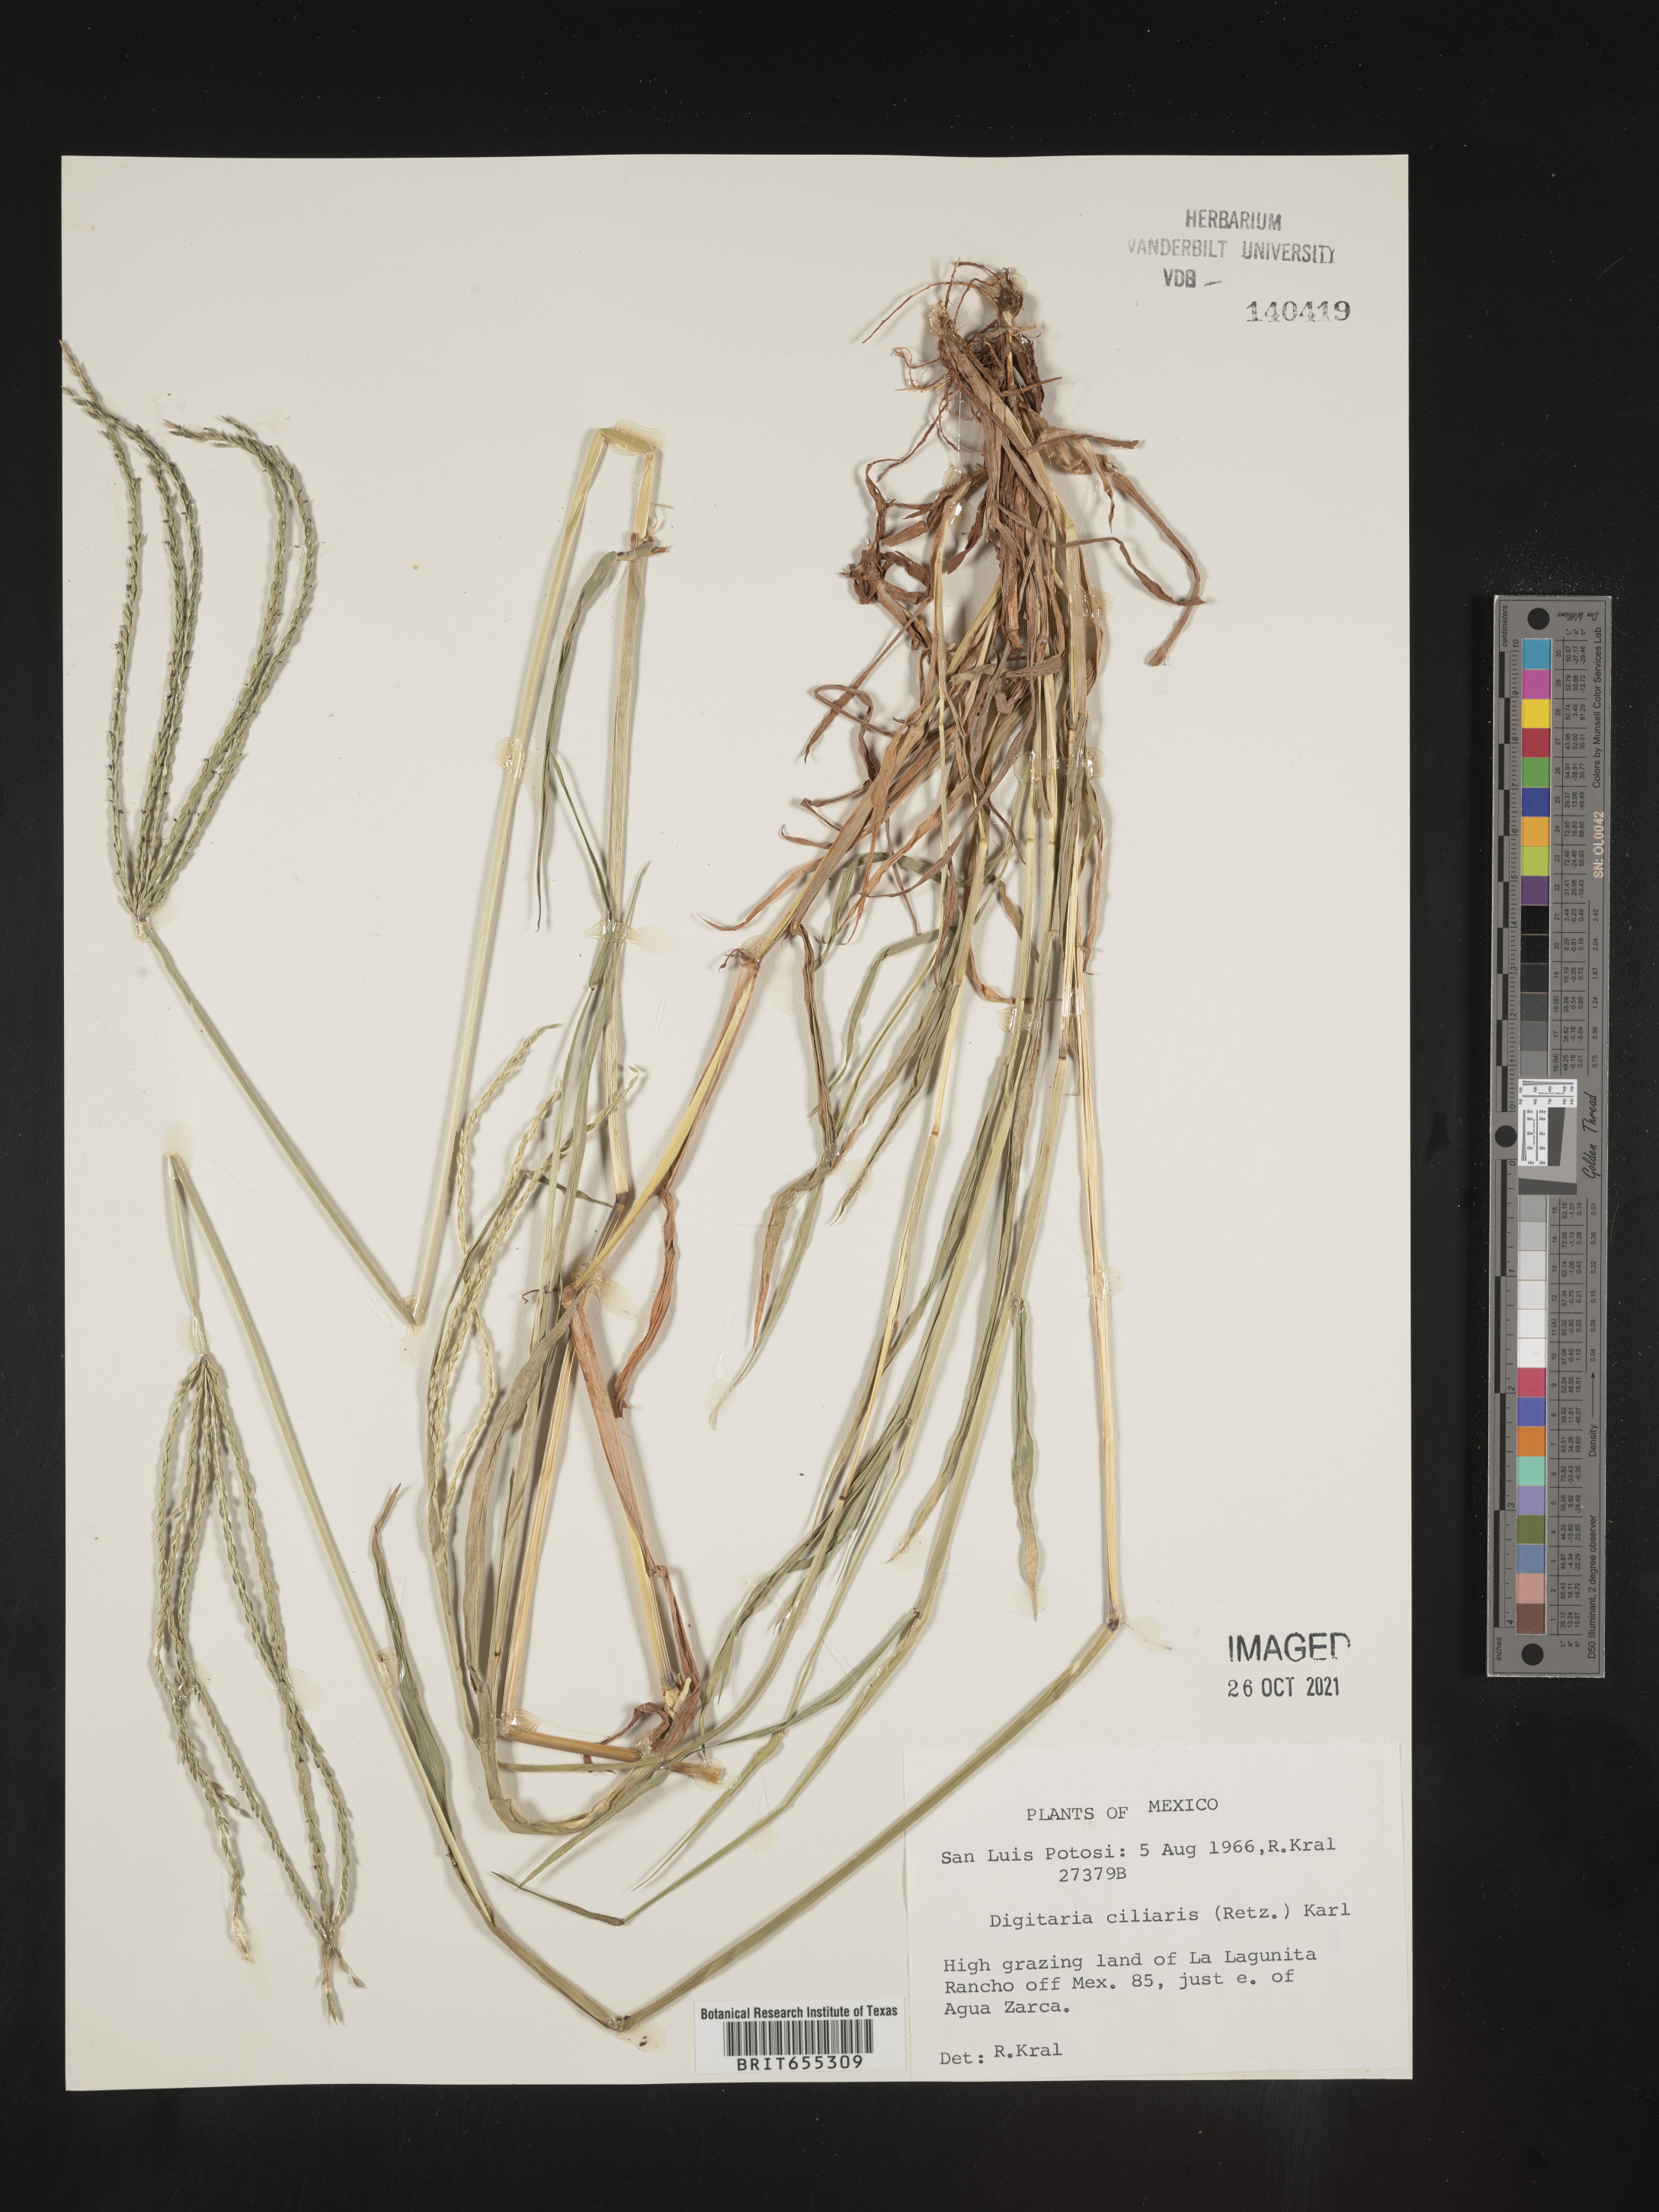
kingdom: Plantae
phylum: Tracheophyta
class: Liliopsida
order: Poales
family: Poaceae
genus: Digitaria
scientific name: Digitaria
